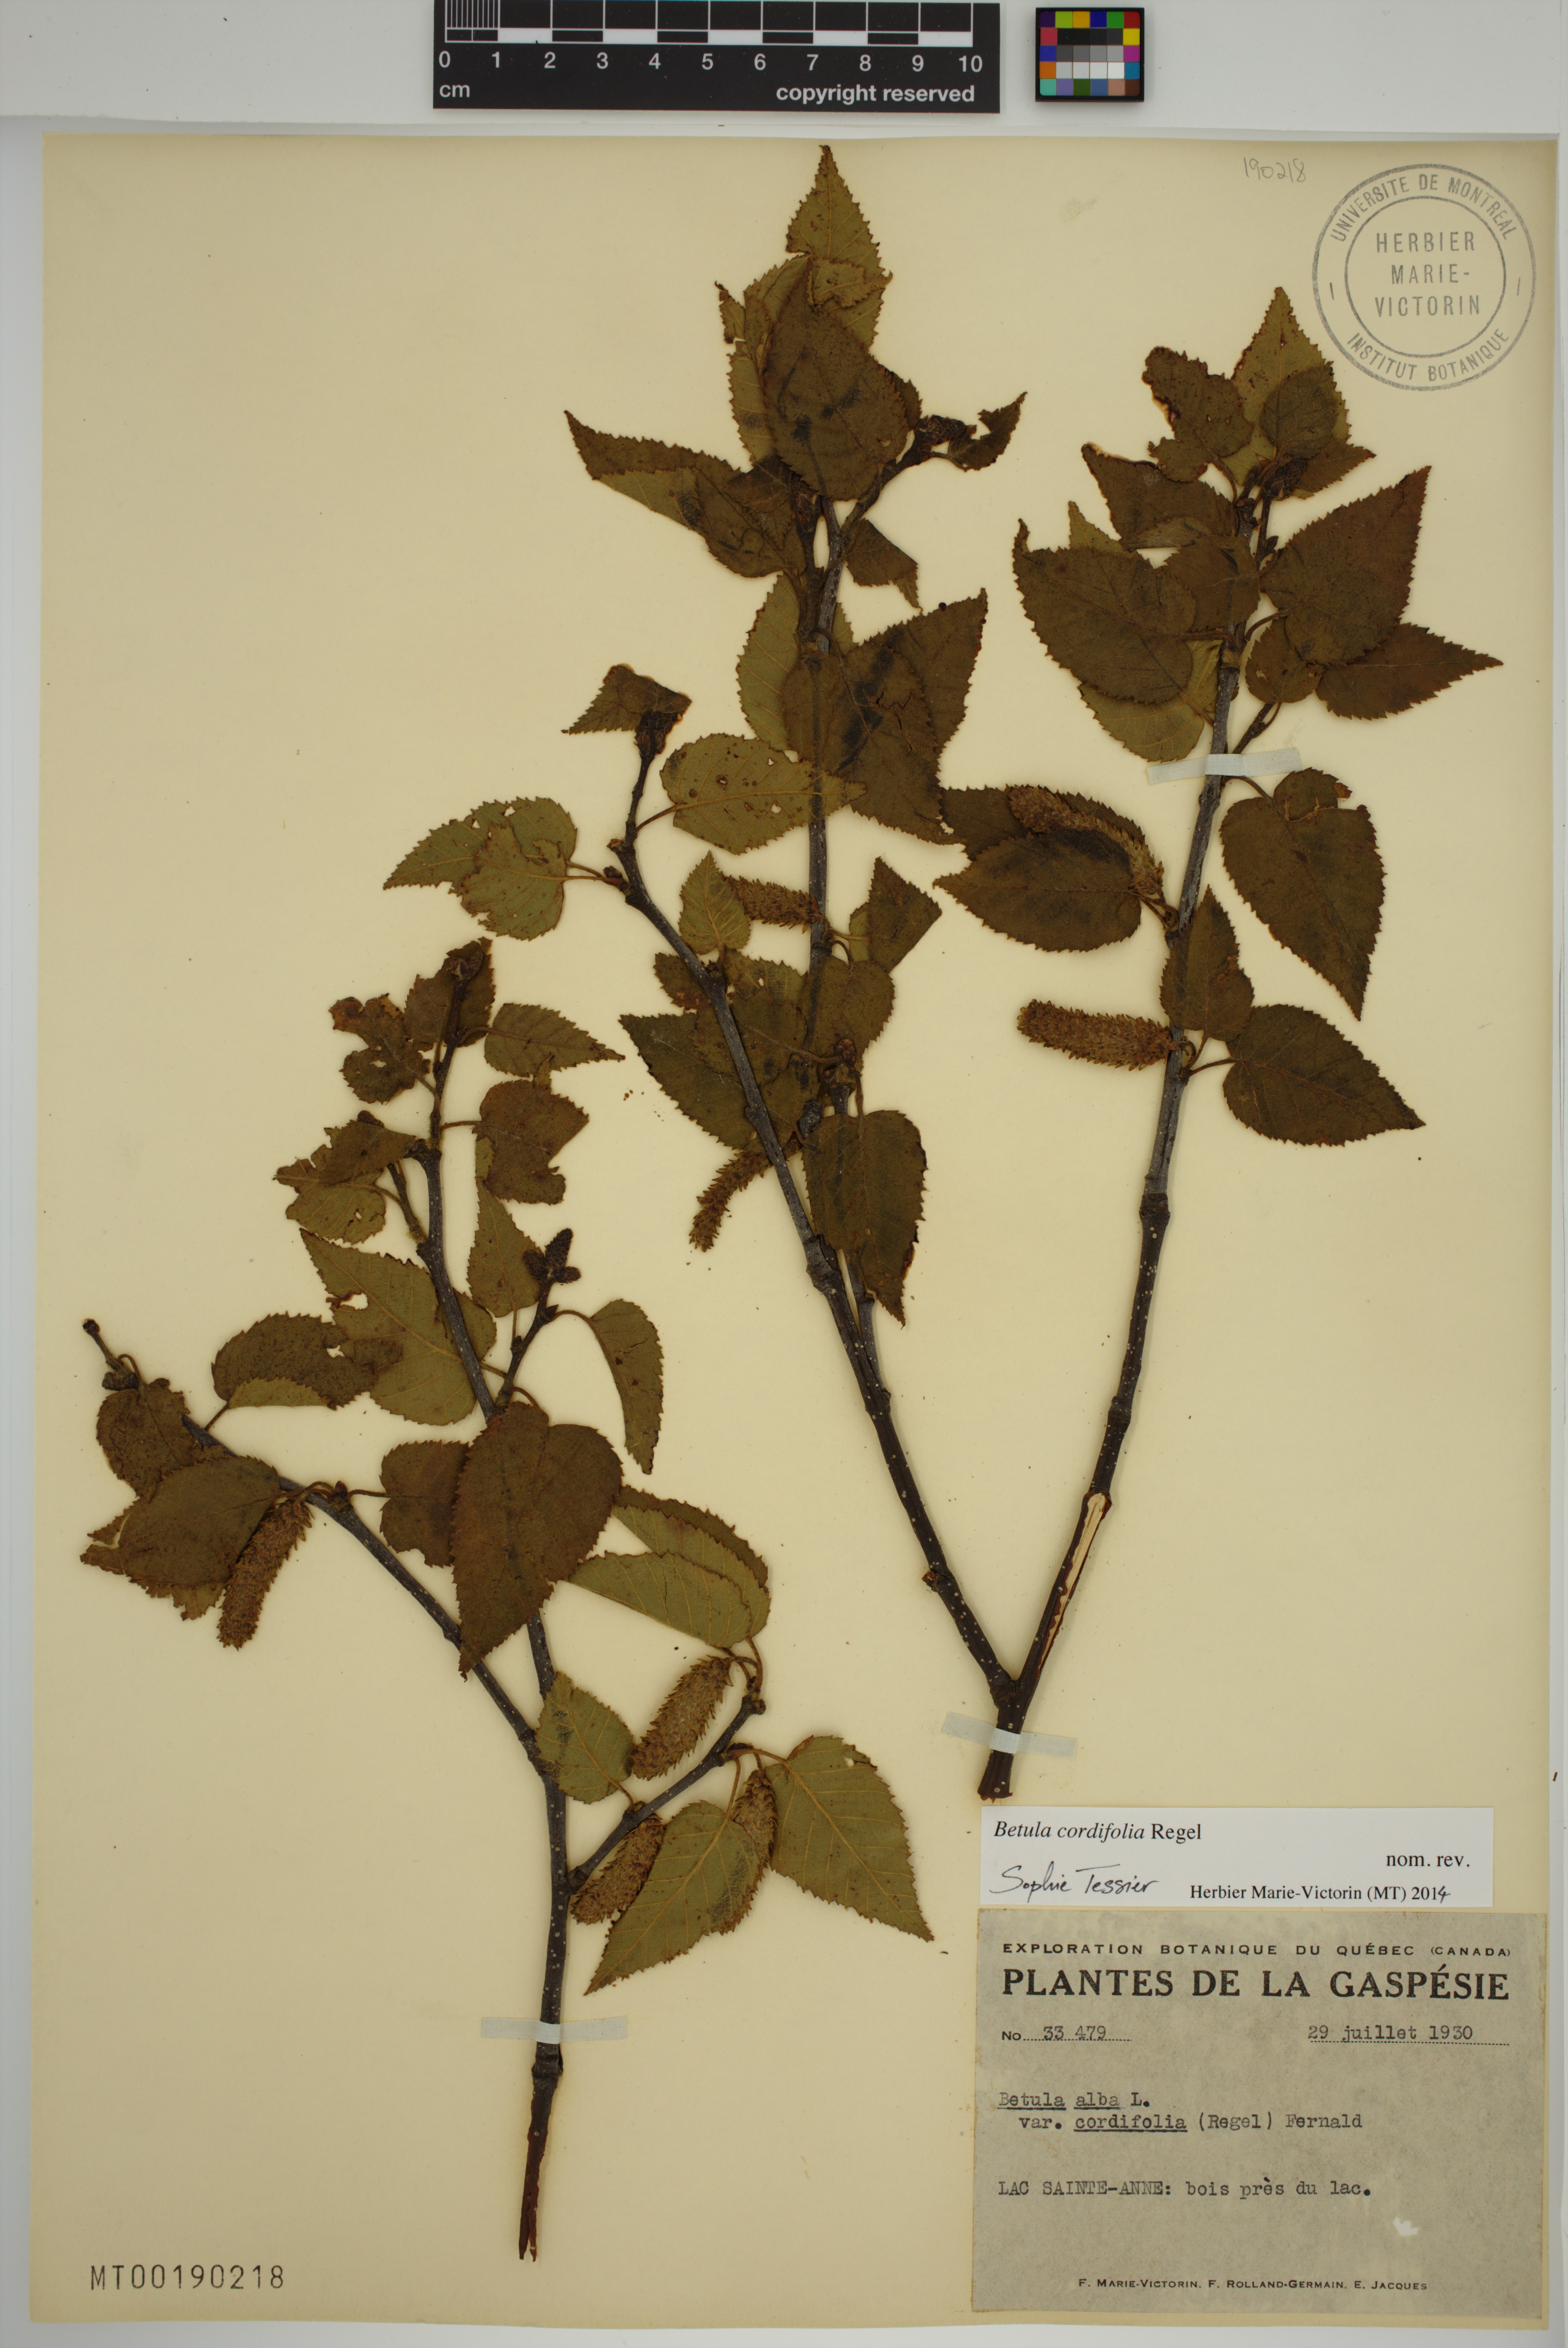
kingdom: Plantae
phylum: Tracheophyta
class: Magnoliopsida
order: Fagales
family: Betulaceae
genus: Betula
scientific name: Betula cordifolia
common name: Mountain white birch
